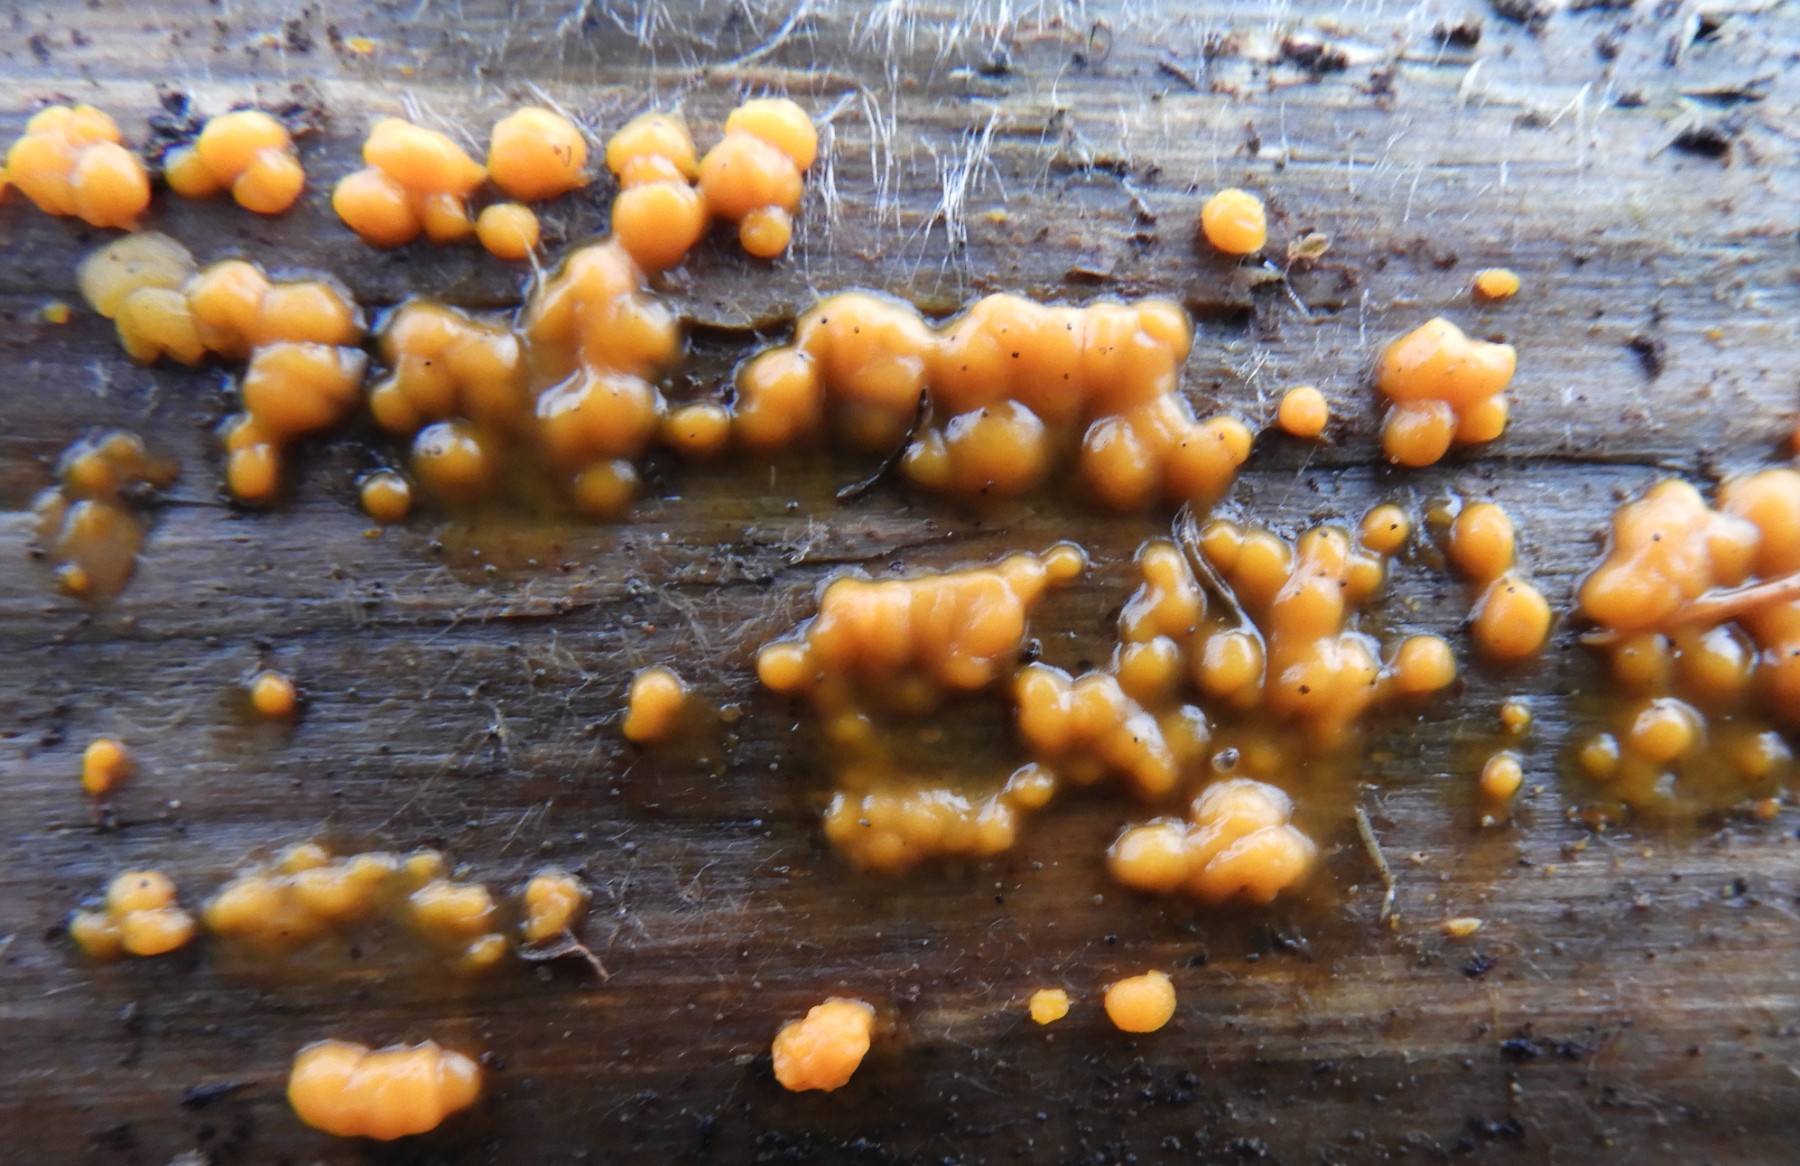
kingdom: Fungi
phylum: Basidiomycota
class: Dacrymycetes
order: Dacrymycetales
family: Dacrymycetaceae
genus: Dacrymyces
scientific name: Dacrymyces stillatus
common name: almindelig tåresvamp
